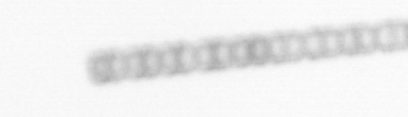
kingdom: Chromista
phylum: Ochrophyta
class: Bacillariophyceae
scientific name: Bacillariophyceae
